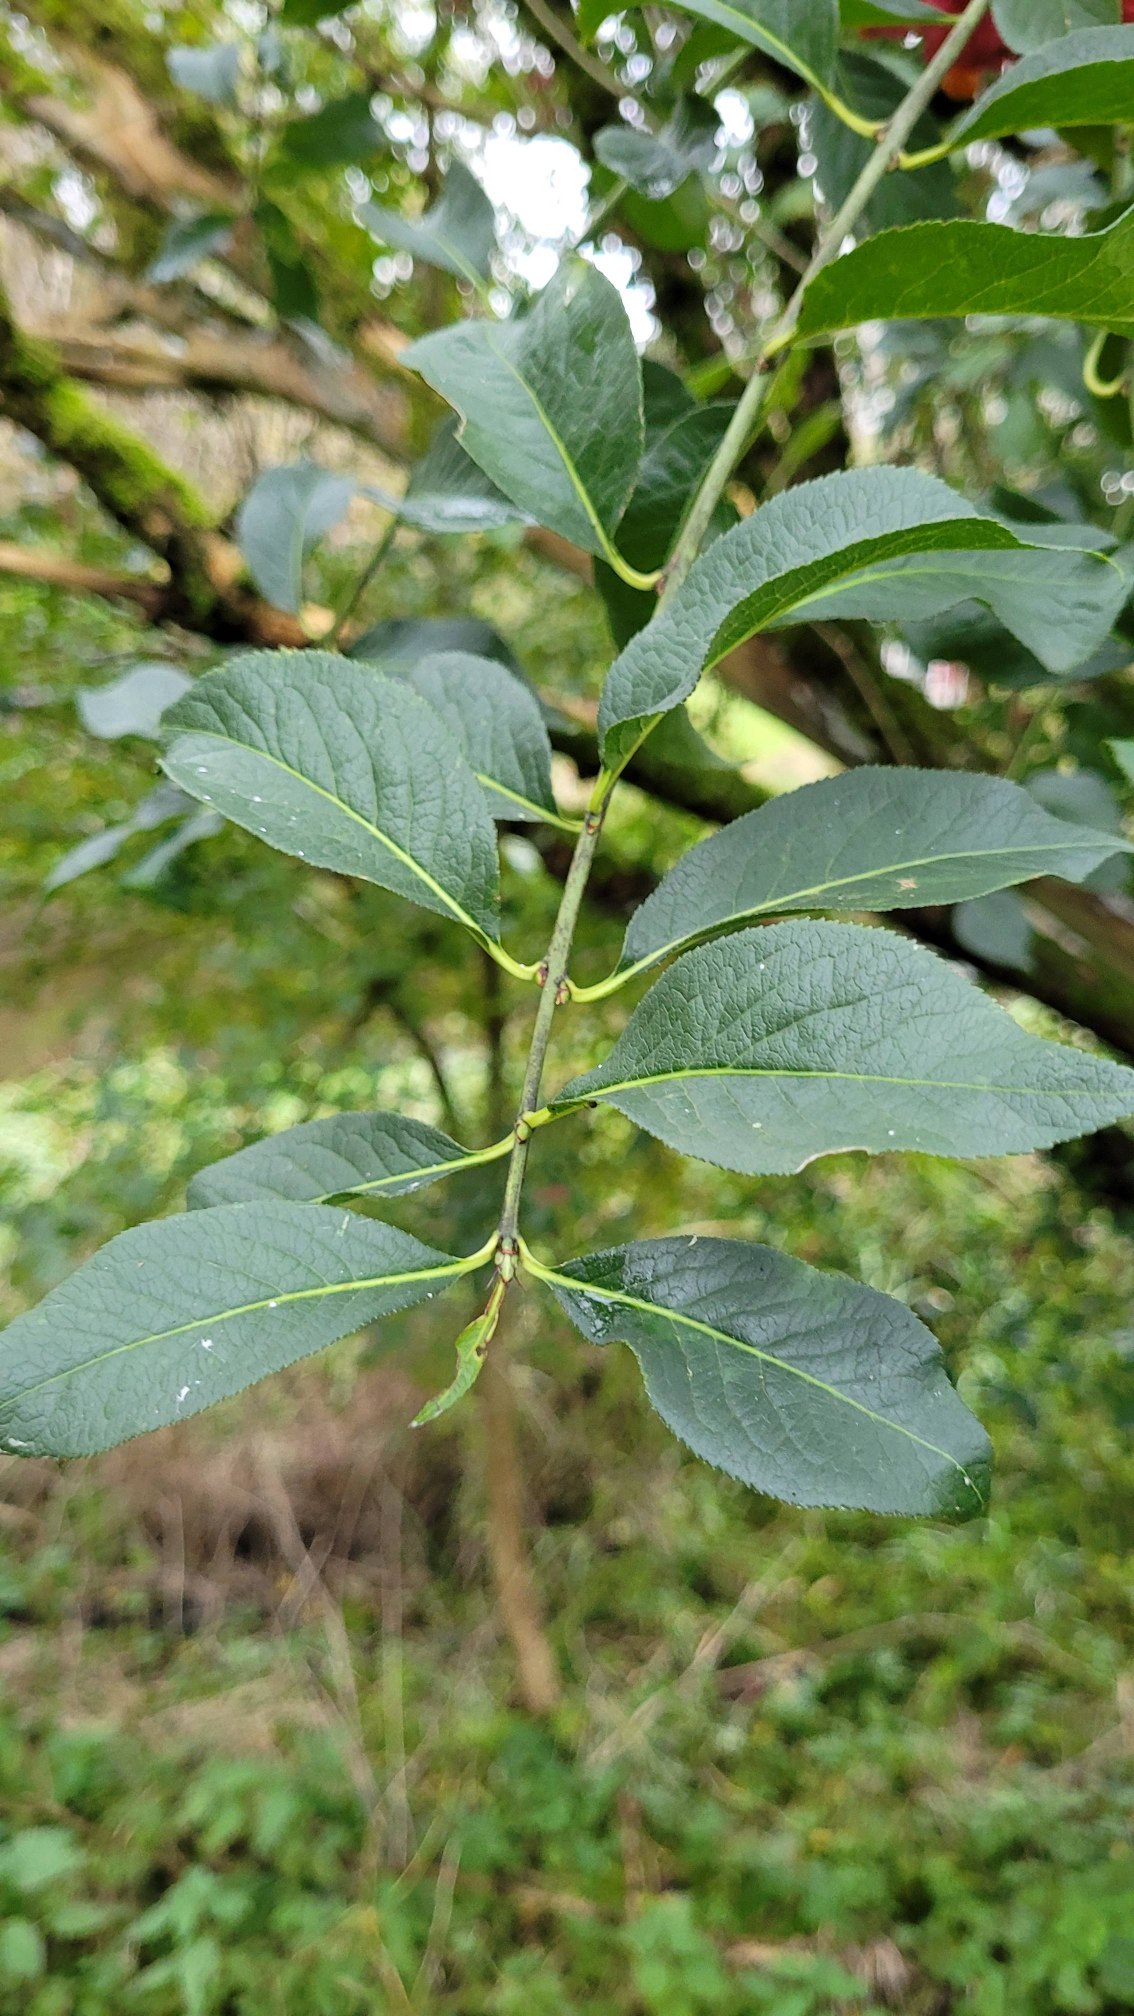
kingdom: Plantae
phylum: Tracheophyta
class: Magnoliopsida
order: Celastrales
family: Celastraceae
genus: Euonymus
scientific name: Euonymus europaeus
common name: Benved
